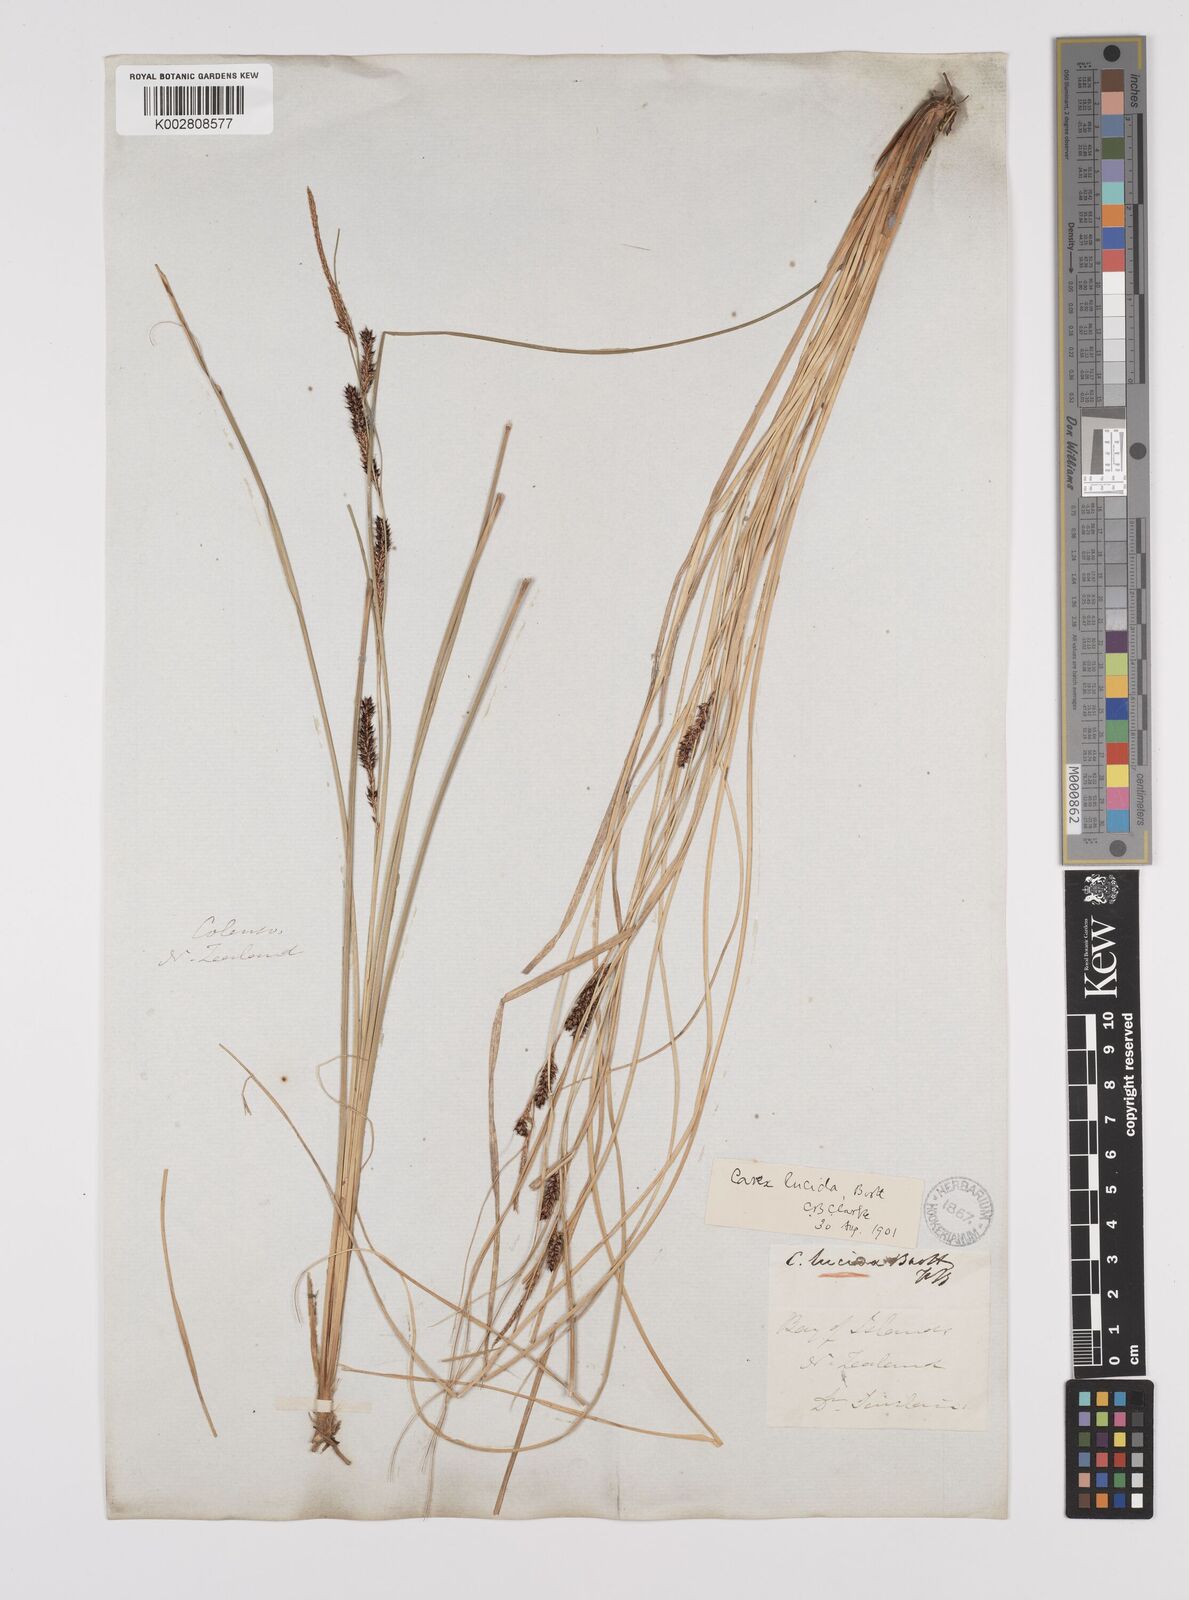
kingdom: Plantae
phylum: Tracheophyta
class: Liliopsida
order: Poales
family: Cyperaceae
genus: Carex
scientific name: Carex flagellifera
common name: Glen murray tussock
